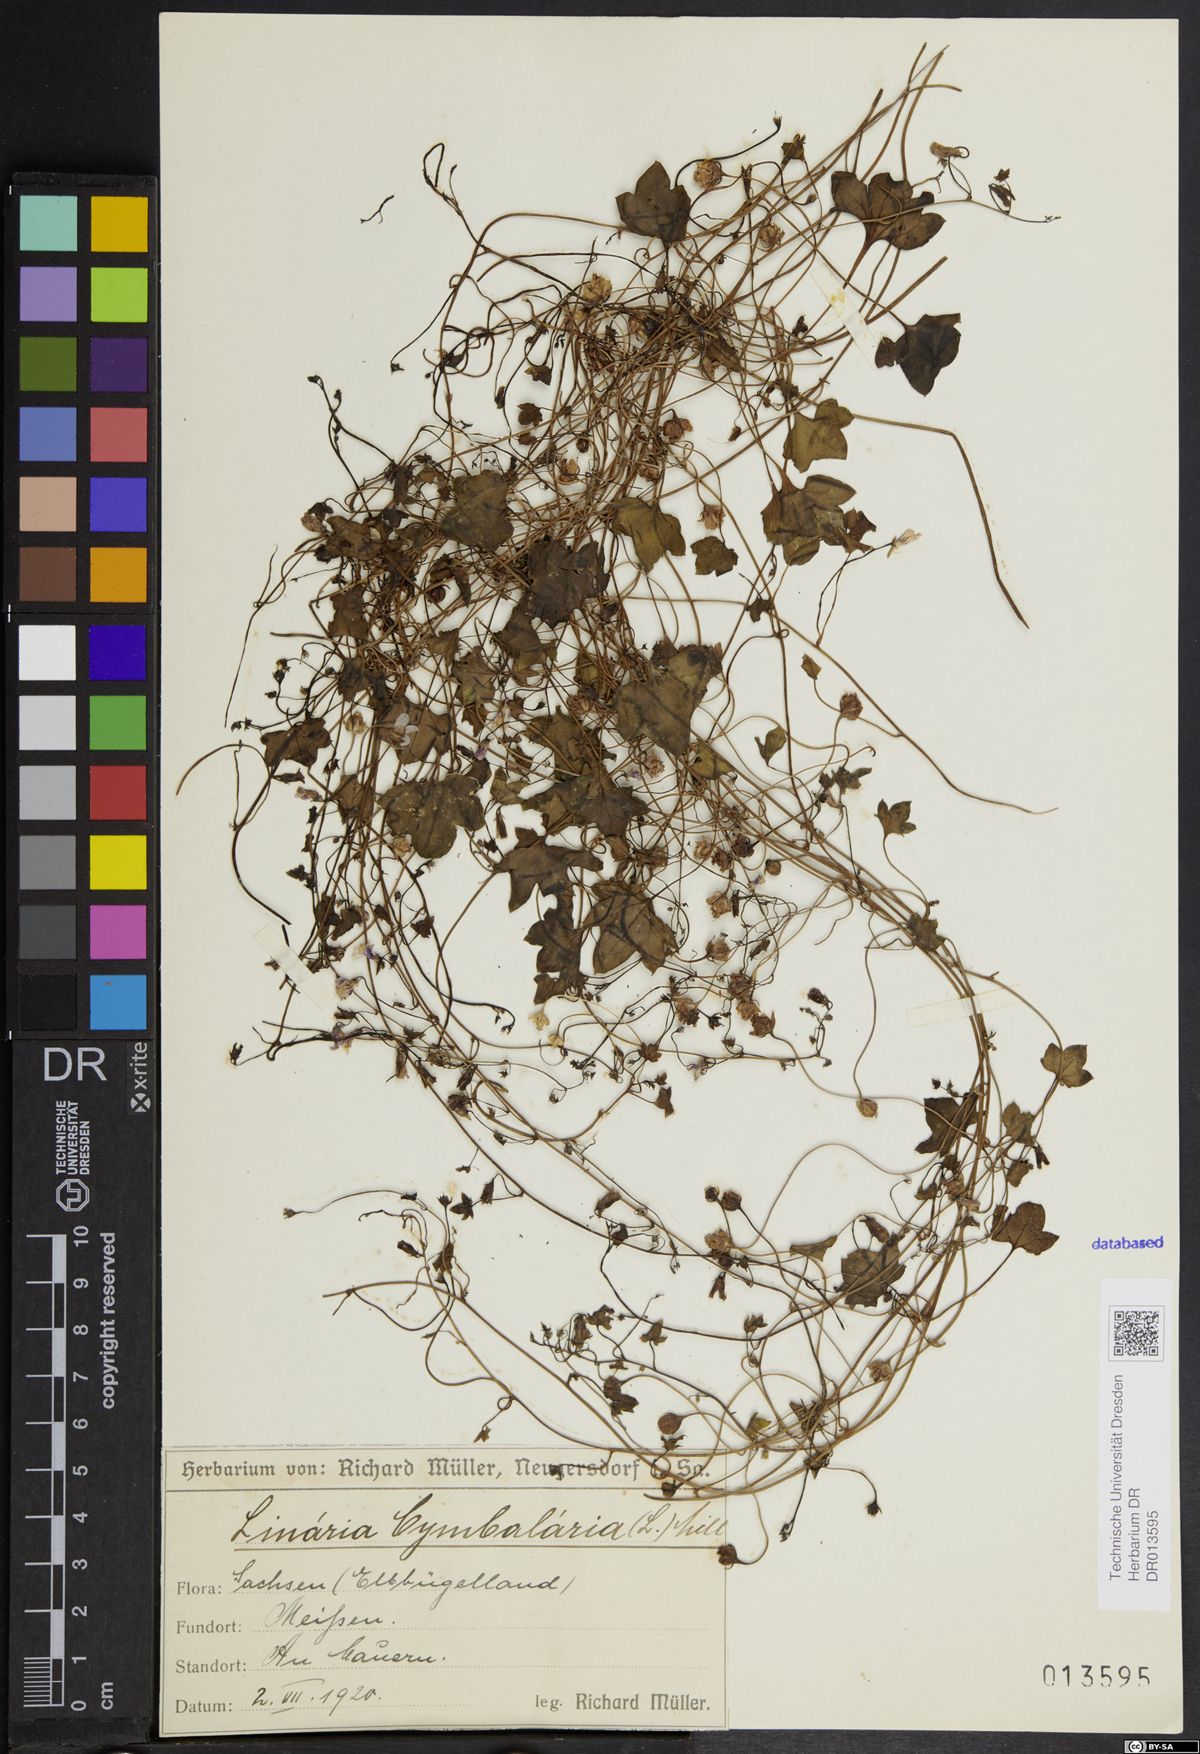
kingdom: Plantae
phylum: Tracheophyta
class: Magnoliopsida
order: Lamiales
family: Plantaginaceae
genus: Cymbalaria
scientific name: Cymbalaria muralis
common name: Ivy-leaved toadflax
